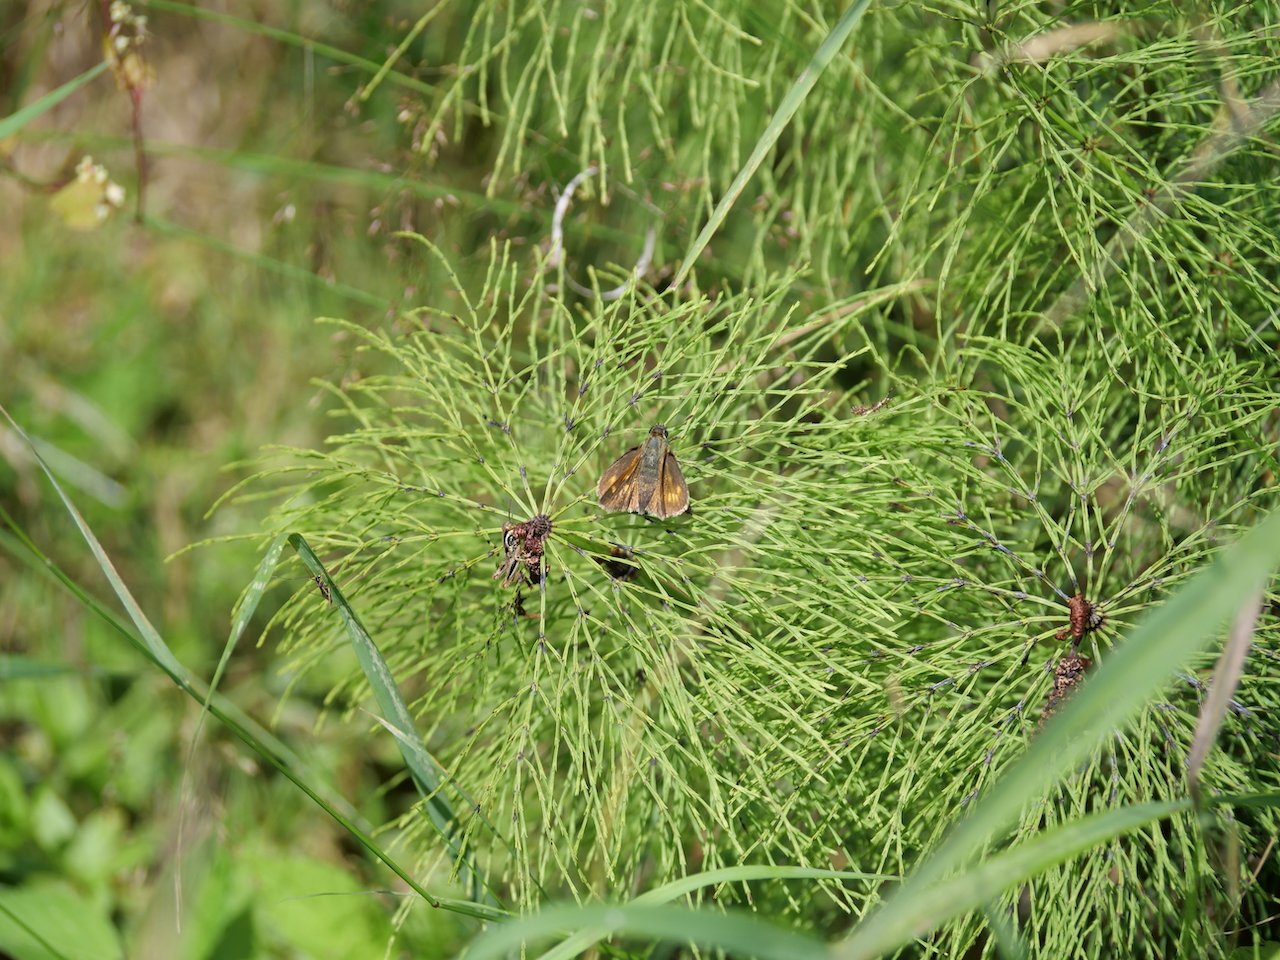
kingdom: Animalia
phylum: Arthropoda
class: Insecta
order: Lepidoptera
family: Hesperiidae
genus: Polites
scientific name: Polites
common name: Long Dash Skipper
